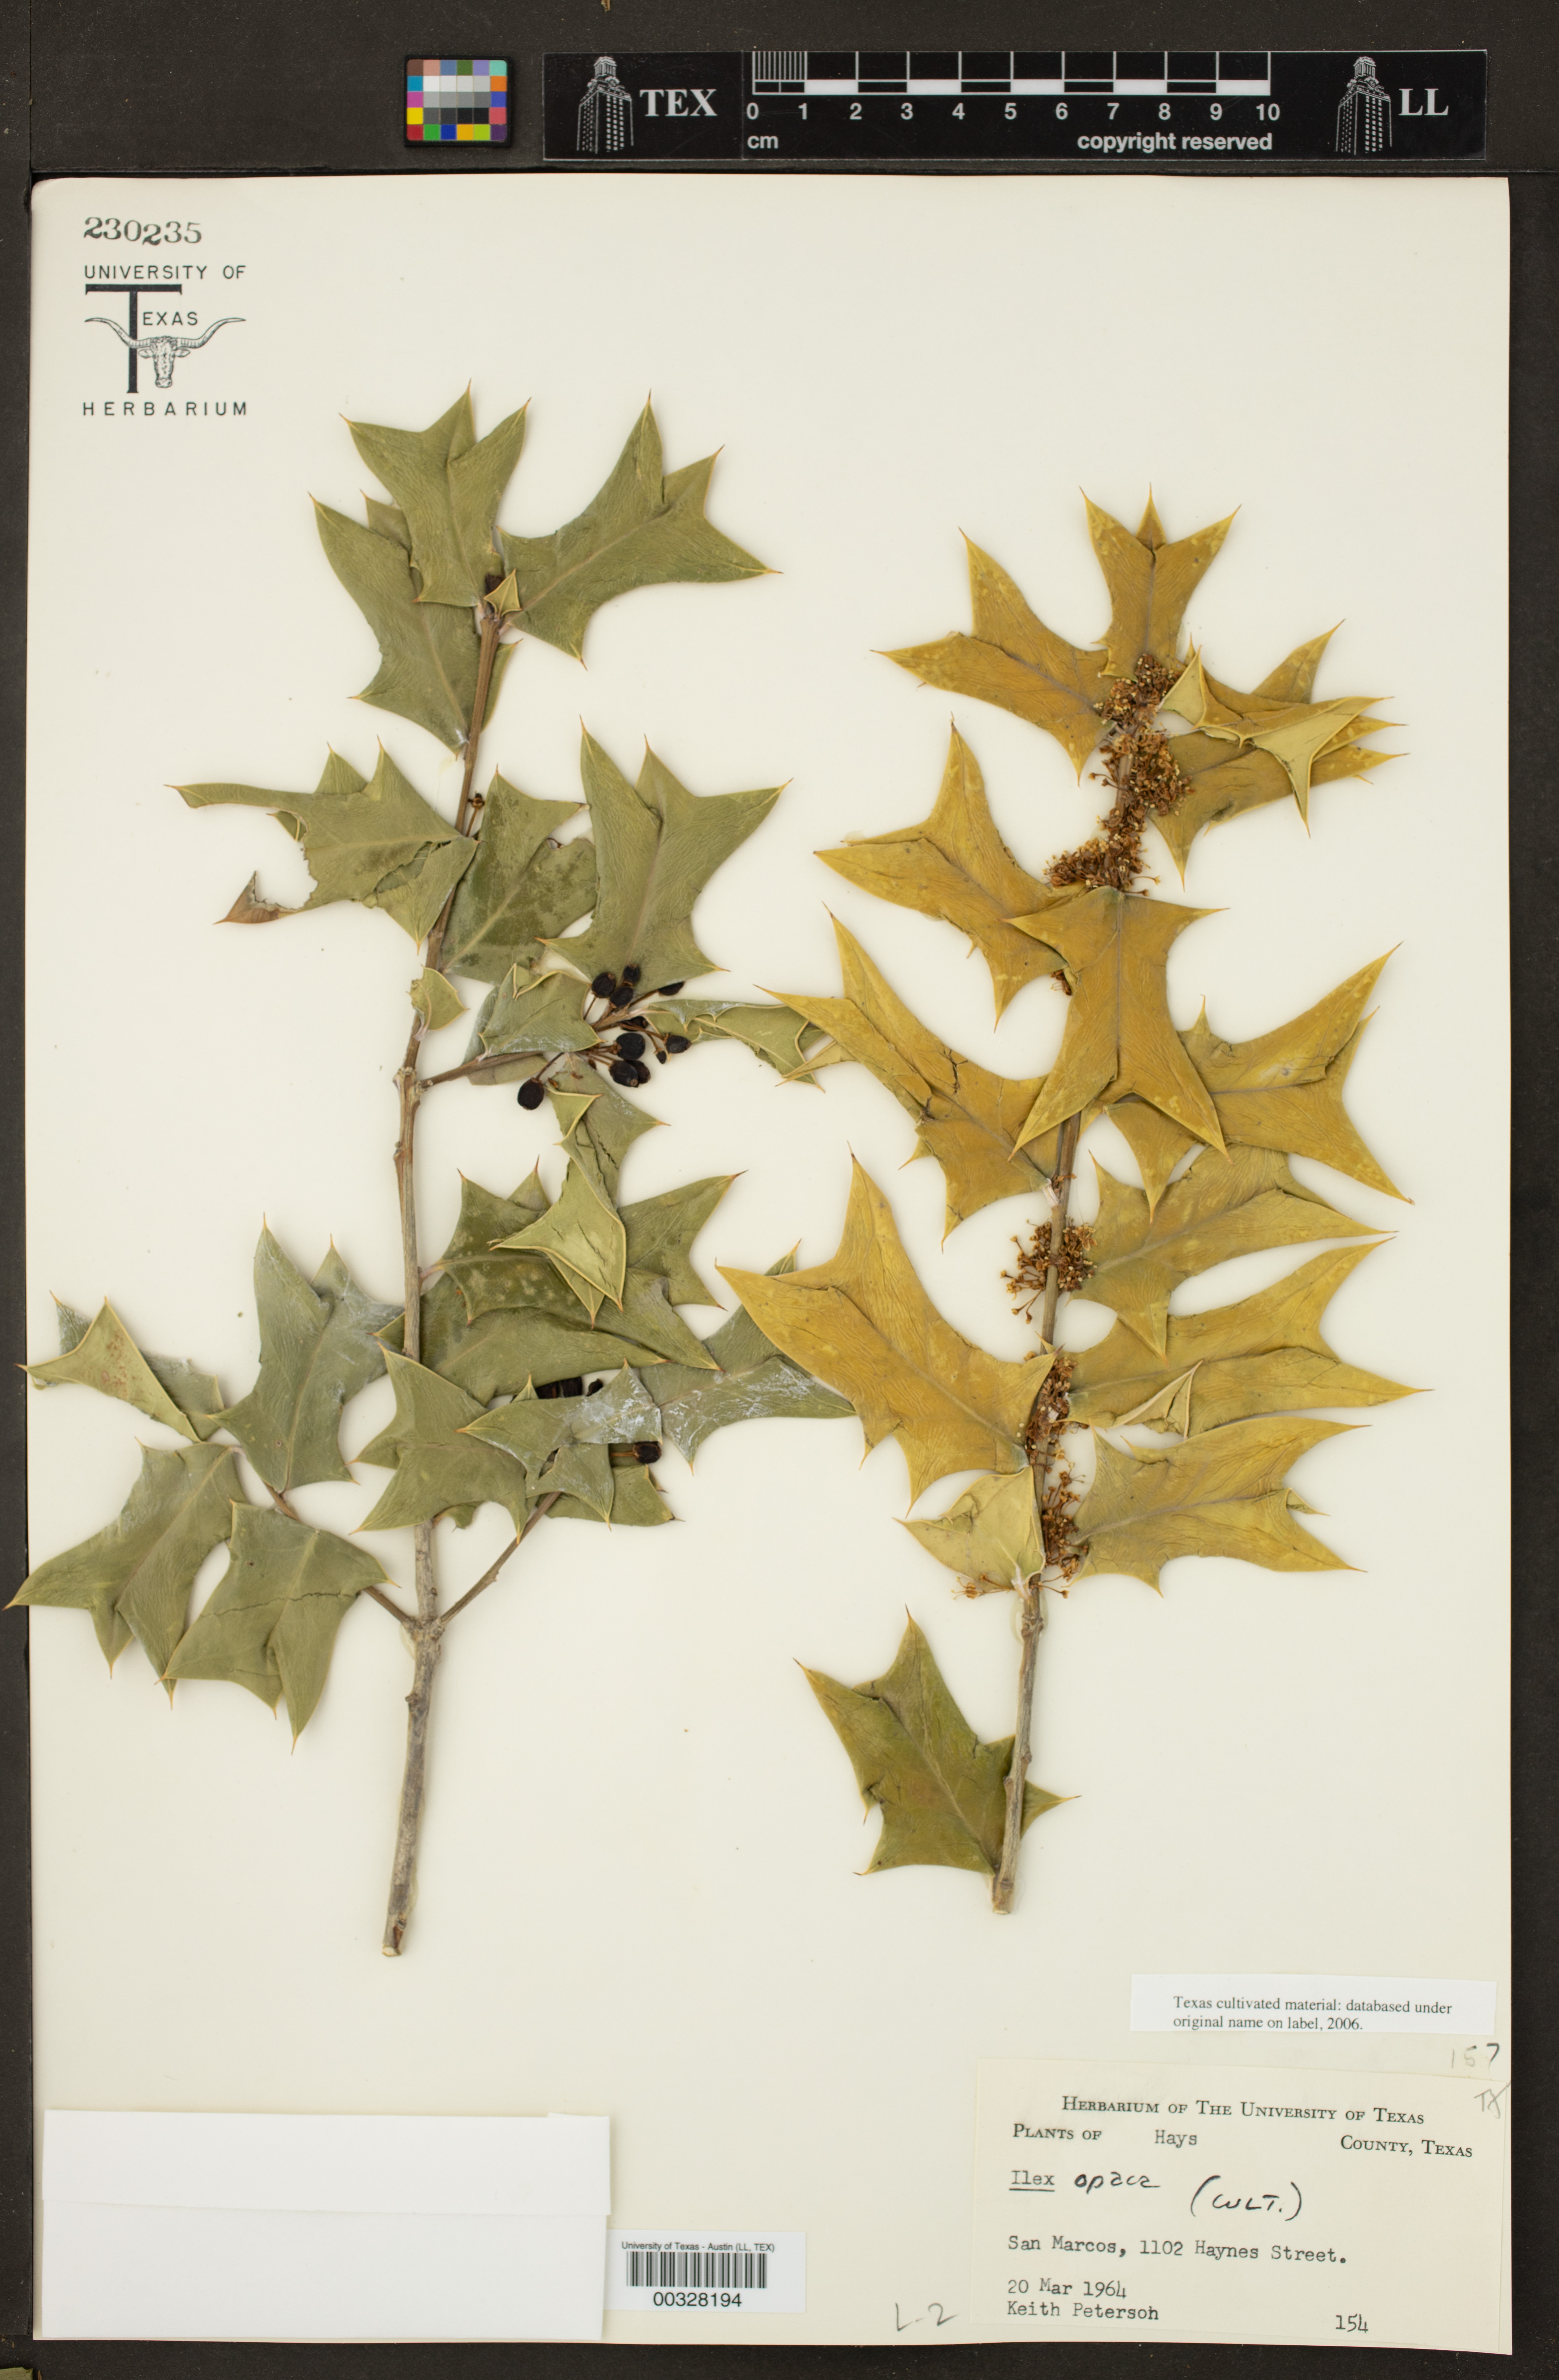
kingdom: Plantae
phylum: Tracheophyta
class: Magnoliopsida
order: Aquifoliales
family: Aquifoliaceae
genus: Ilex
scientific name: Ilex opaca
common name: American holly
